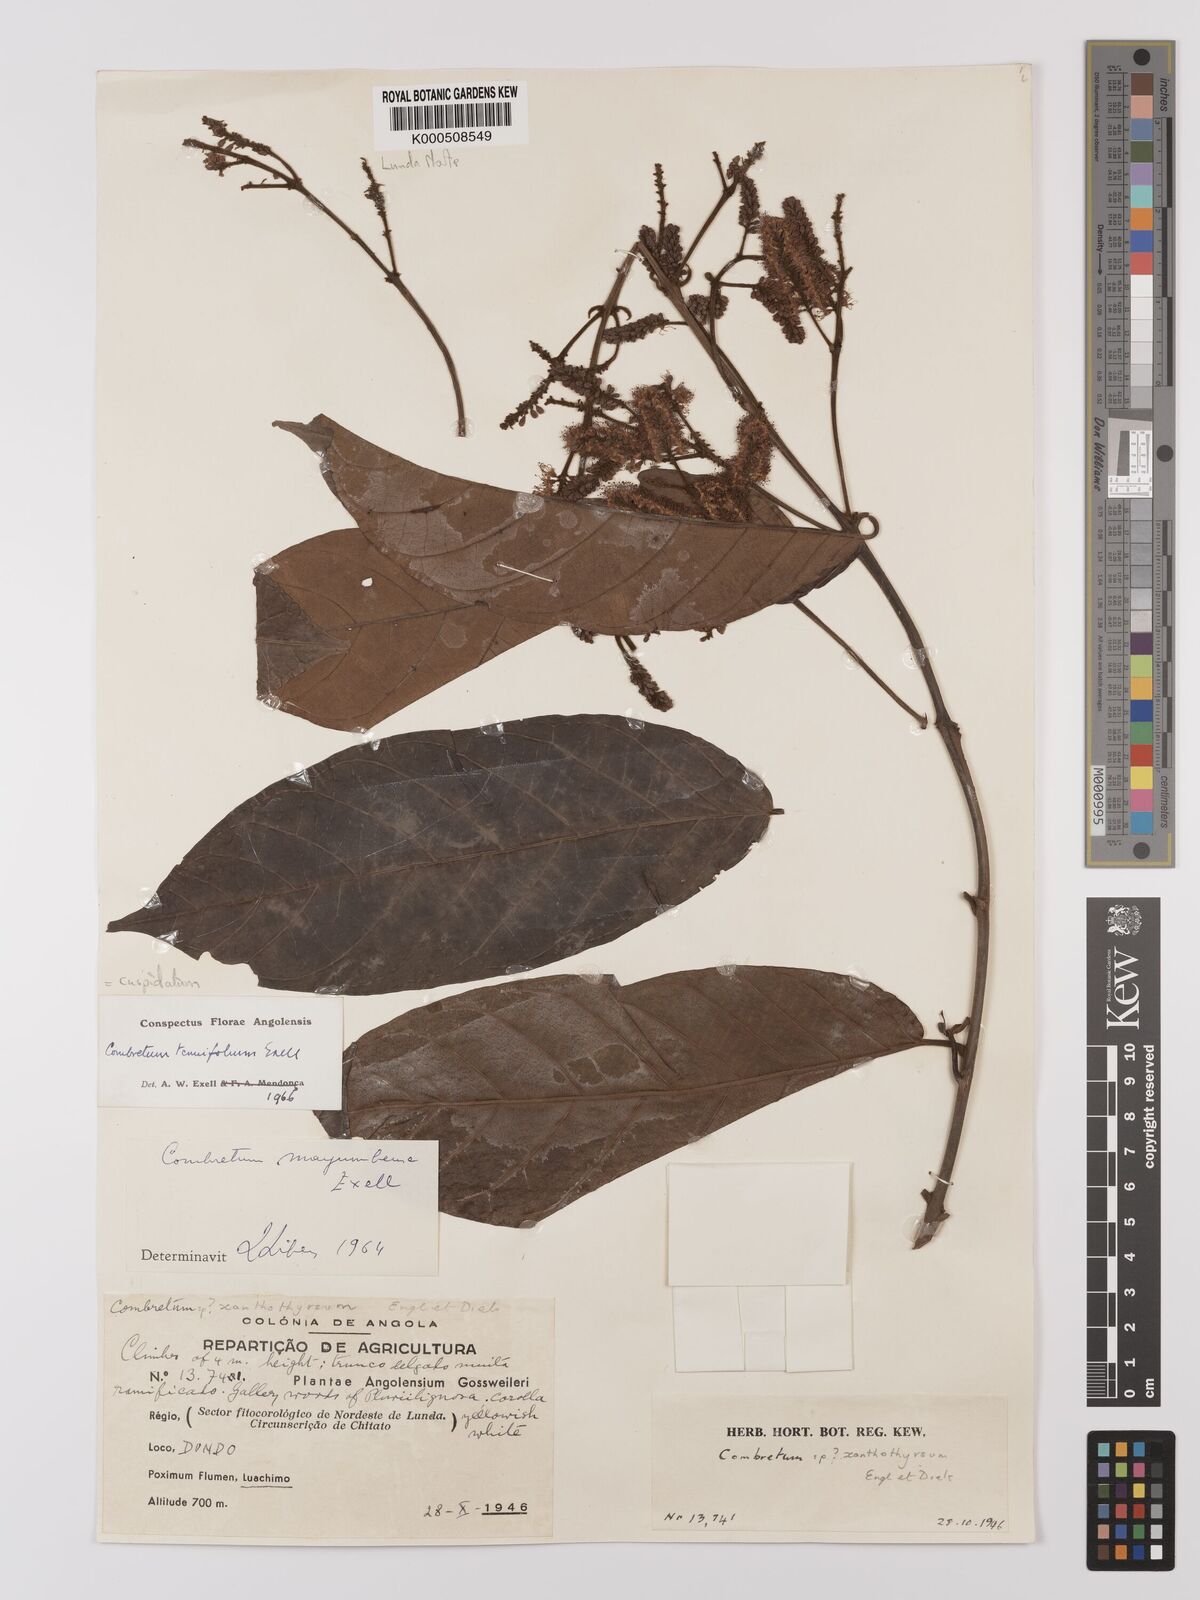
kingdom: Plantae
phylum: Tracheophyta
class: Magnoliopsida
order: Myrtales
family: Combretaceae
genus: Combretum
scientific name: Combretum cuspidatum
